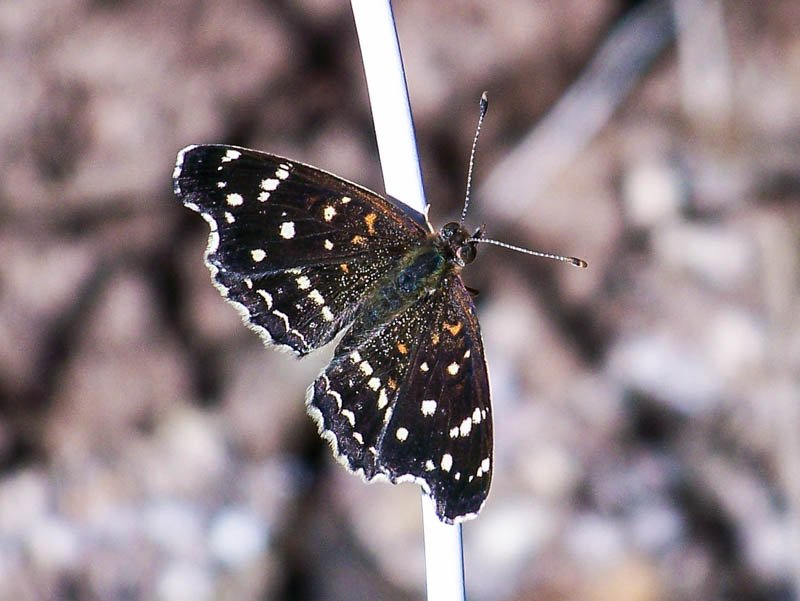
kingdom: Animalia
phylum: Arthropoda
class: Insecta
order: Lepidoptera
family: Nymphalidae
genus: Anthanassa
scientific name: Anthanassa texana
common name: Texan Crescent
